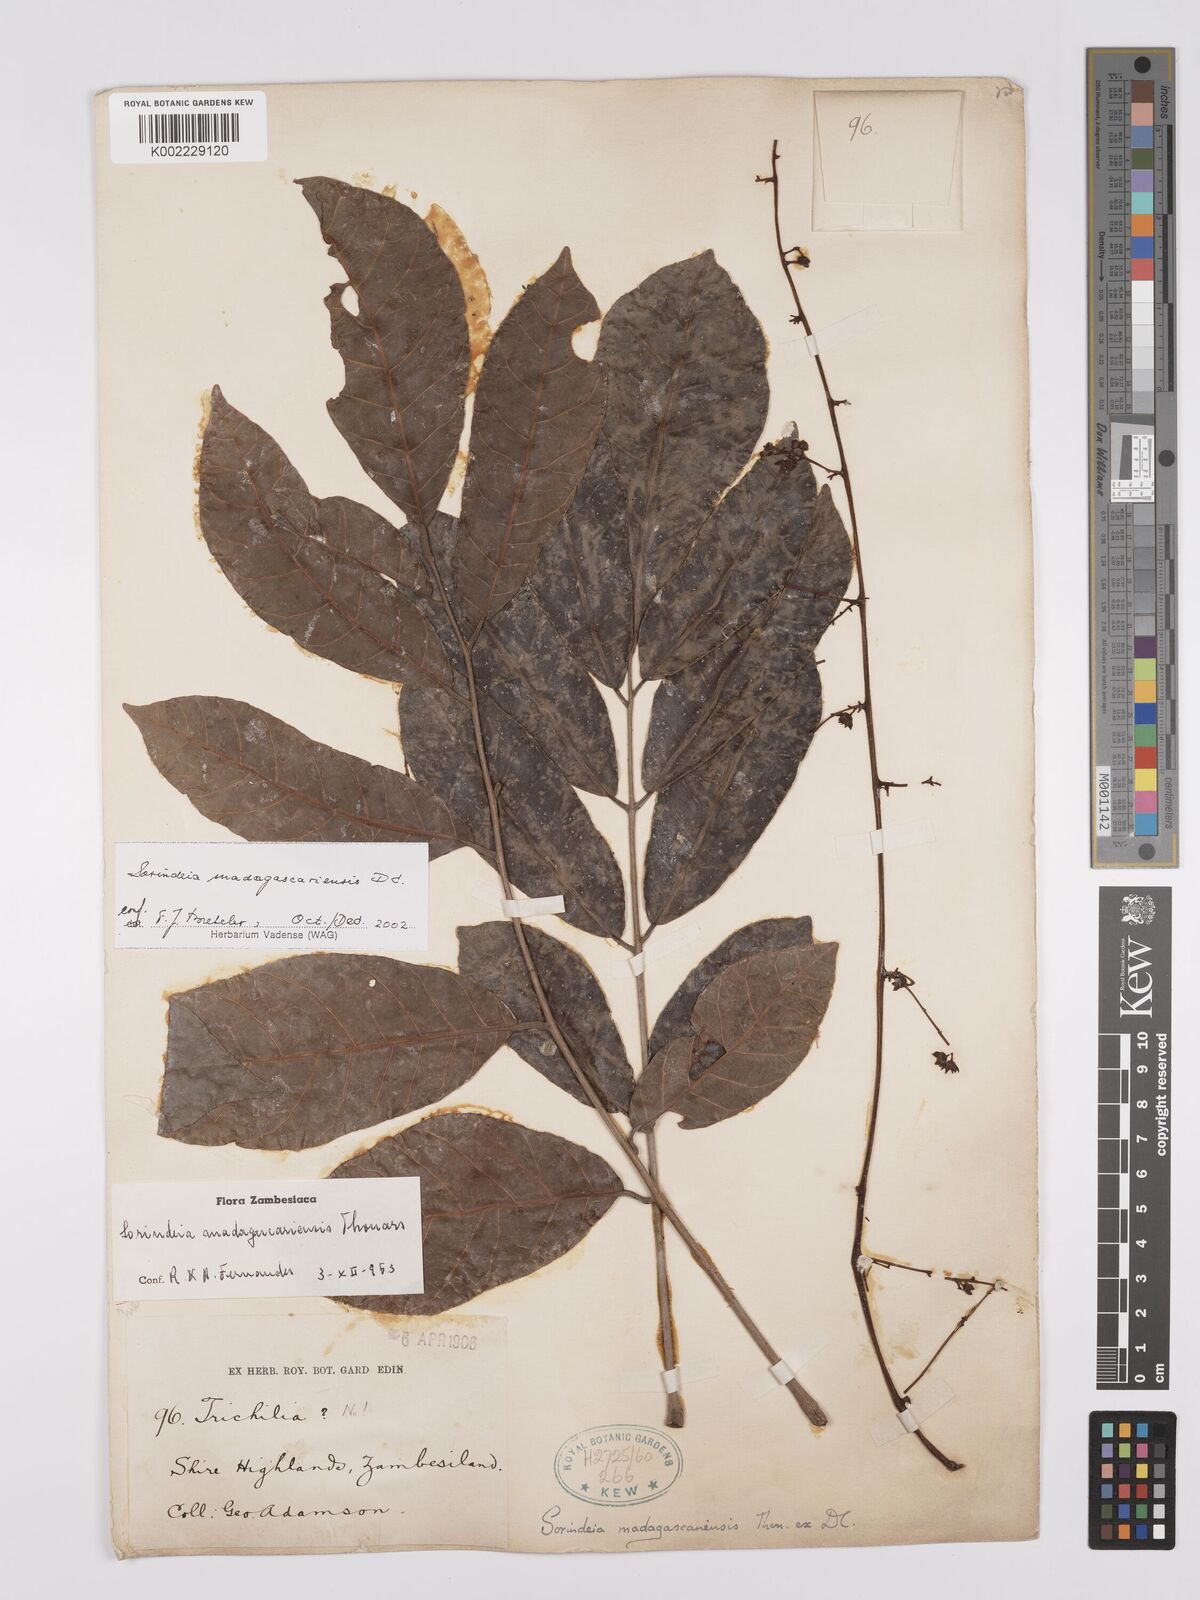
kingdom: Plantae
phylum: Tracheophyta
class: Magnoliopsida
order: Sapindales
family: Anacardiaceae
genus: Sorindeia
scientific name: Sorindeia madagascariensis
